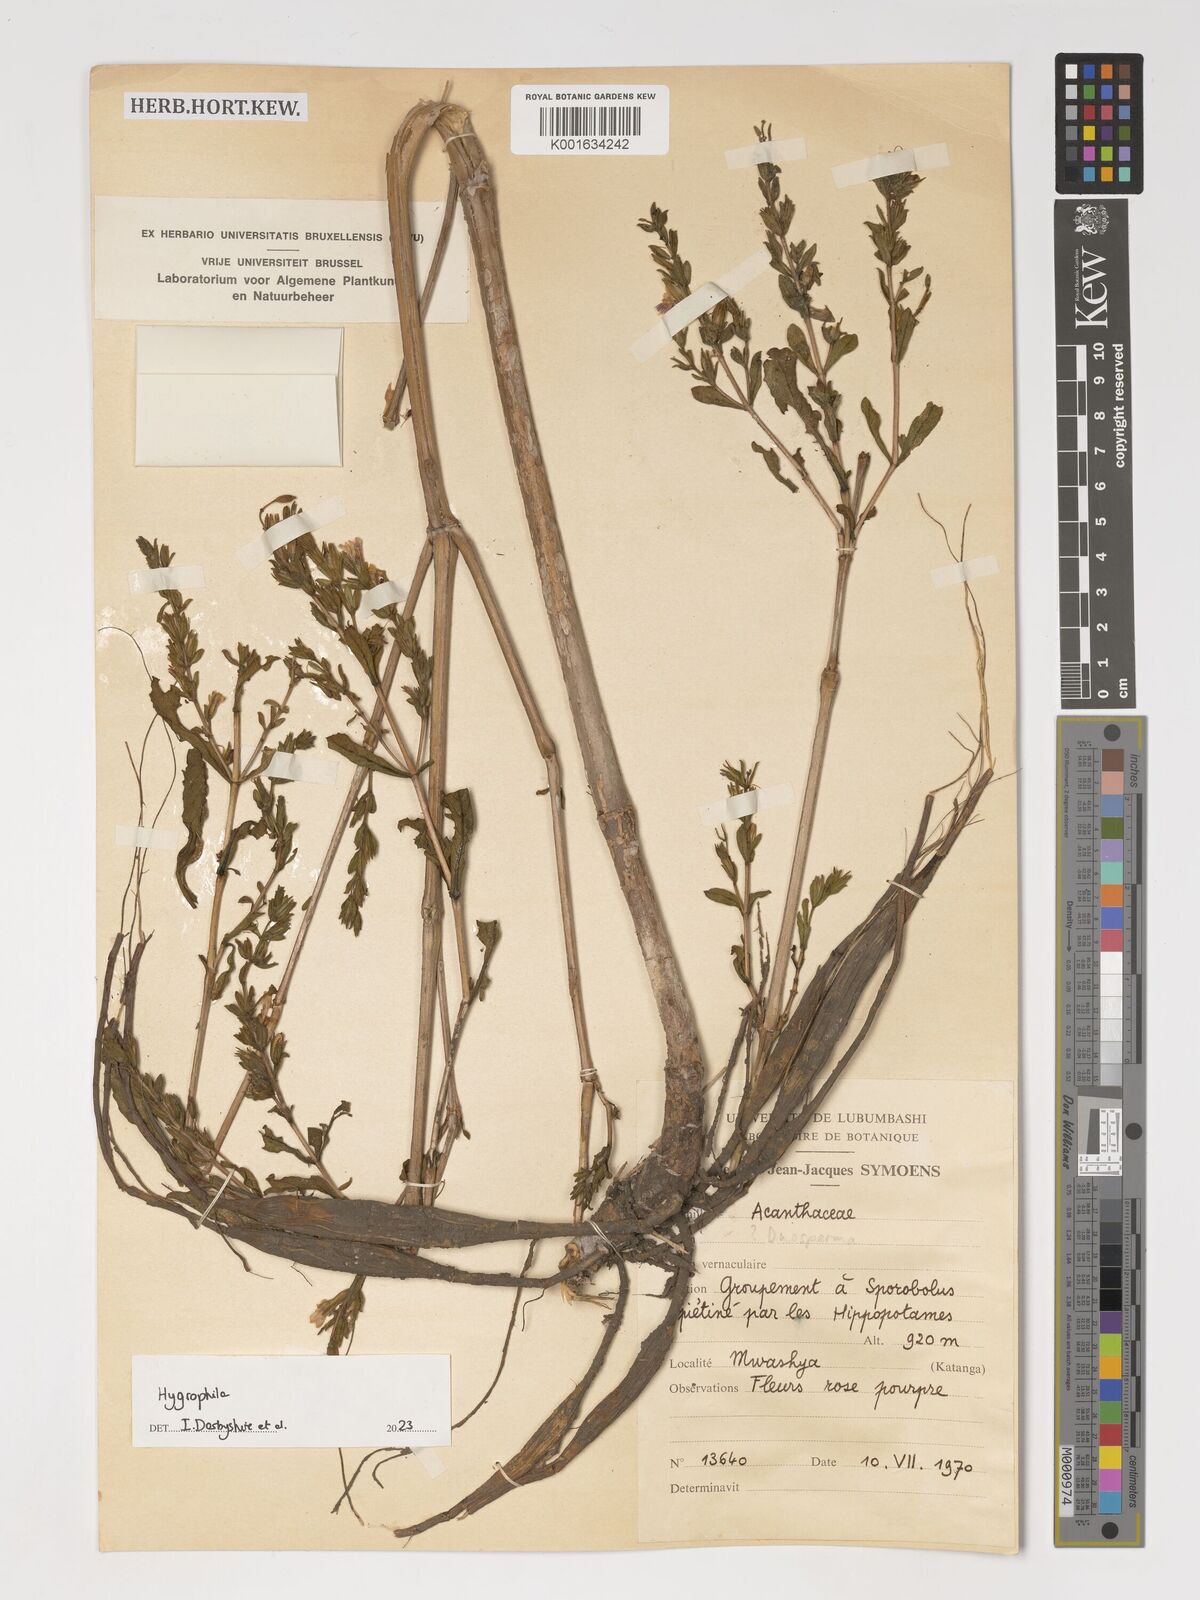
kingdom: Plantae
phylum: Tracheophyta
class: Magnoliopsida
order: Lamiales
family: Acanthaceae
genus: Hygrophila
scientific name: Hygrophila
